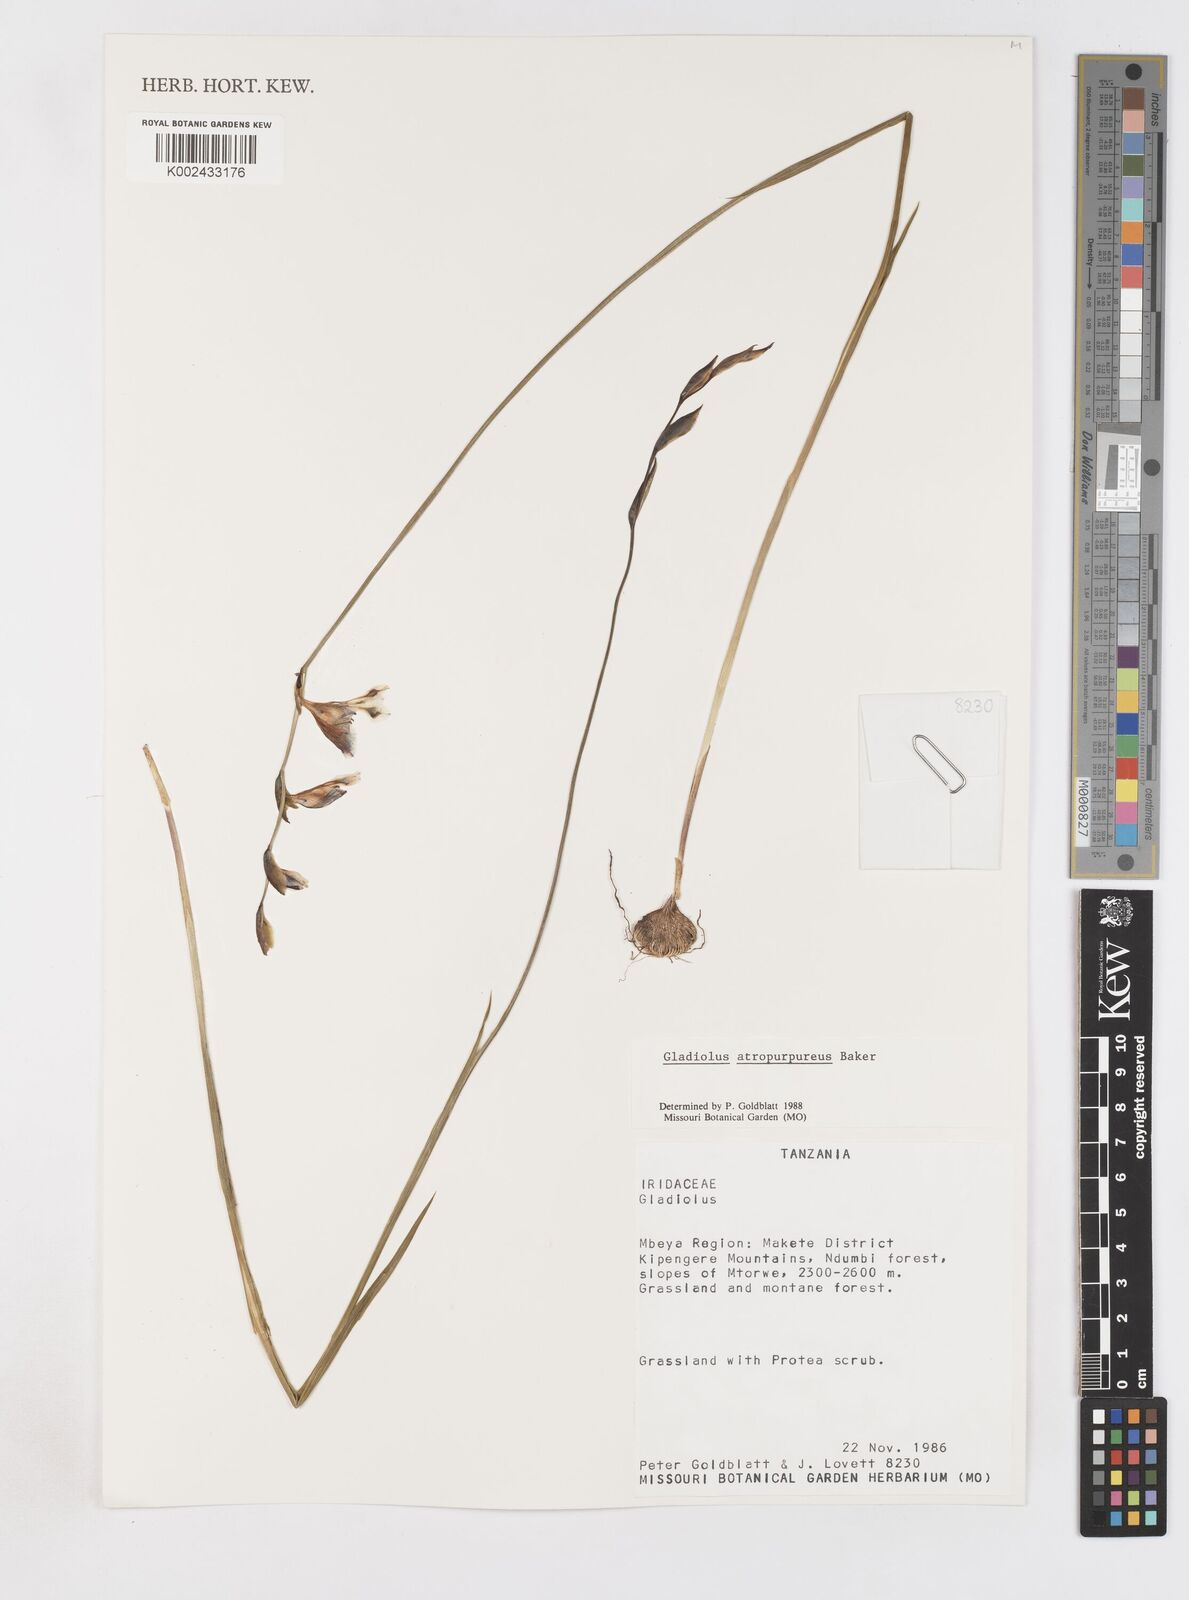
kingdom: Plantae
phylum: Tracheophyta
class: Liliopsida
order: Asparagales
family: Iridaceae
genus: Gladiolus
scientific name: Gladiolus atropurpureus
